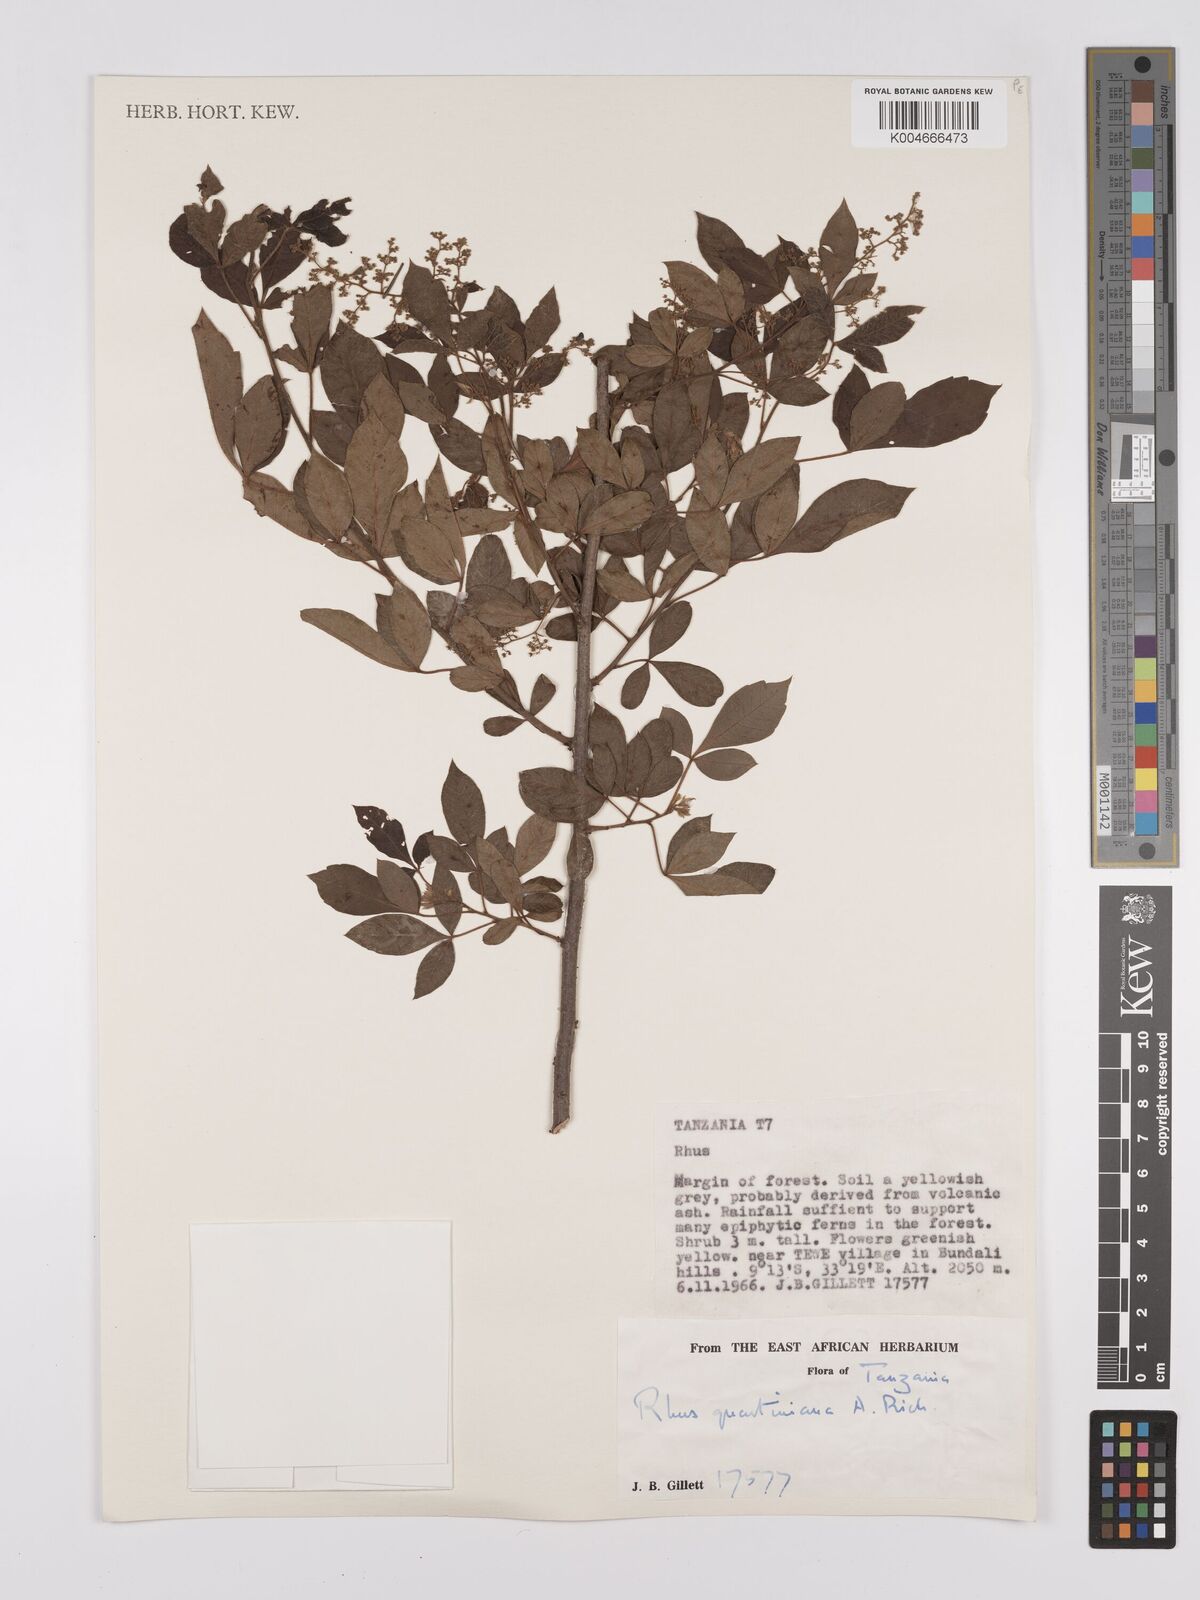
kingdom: Plantae
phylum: Tracheophyta
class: Magnoliopsida
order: Sapindales
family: Anacardiaceae
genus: Searsia
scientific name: Searsia quartiniana
